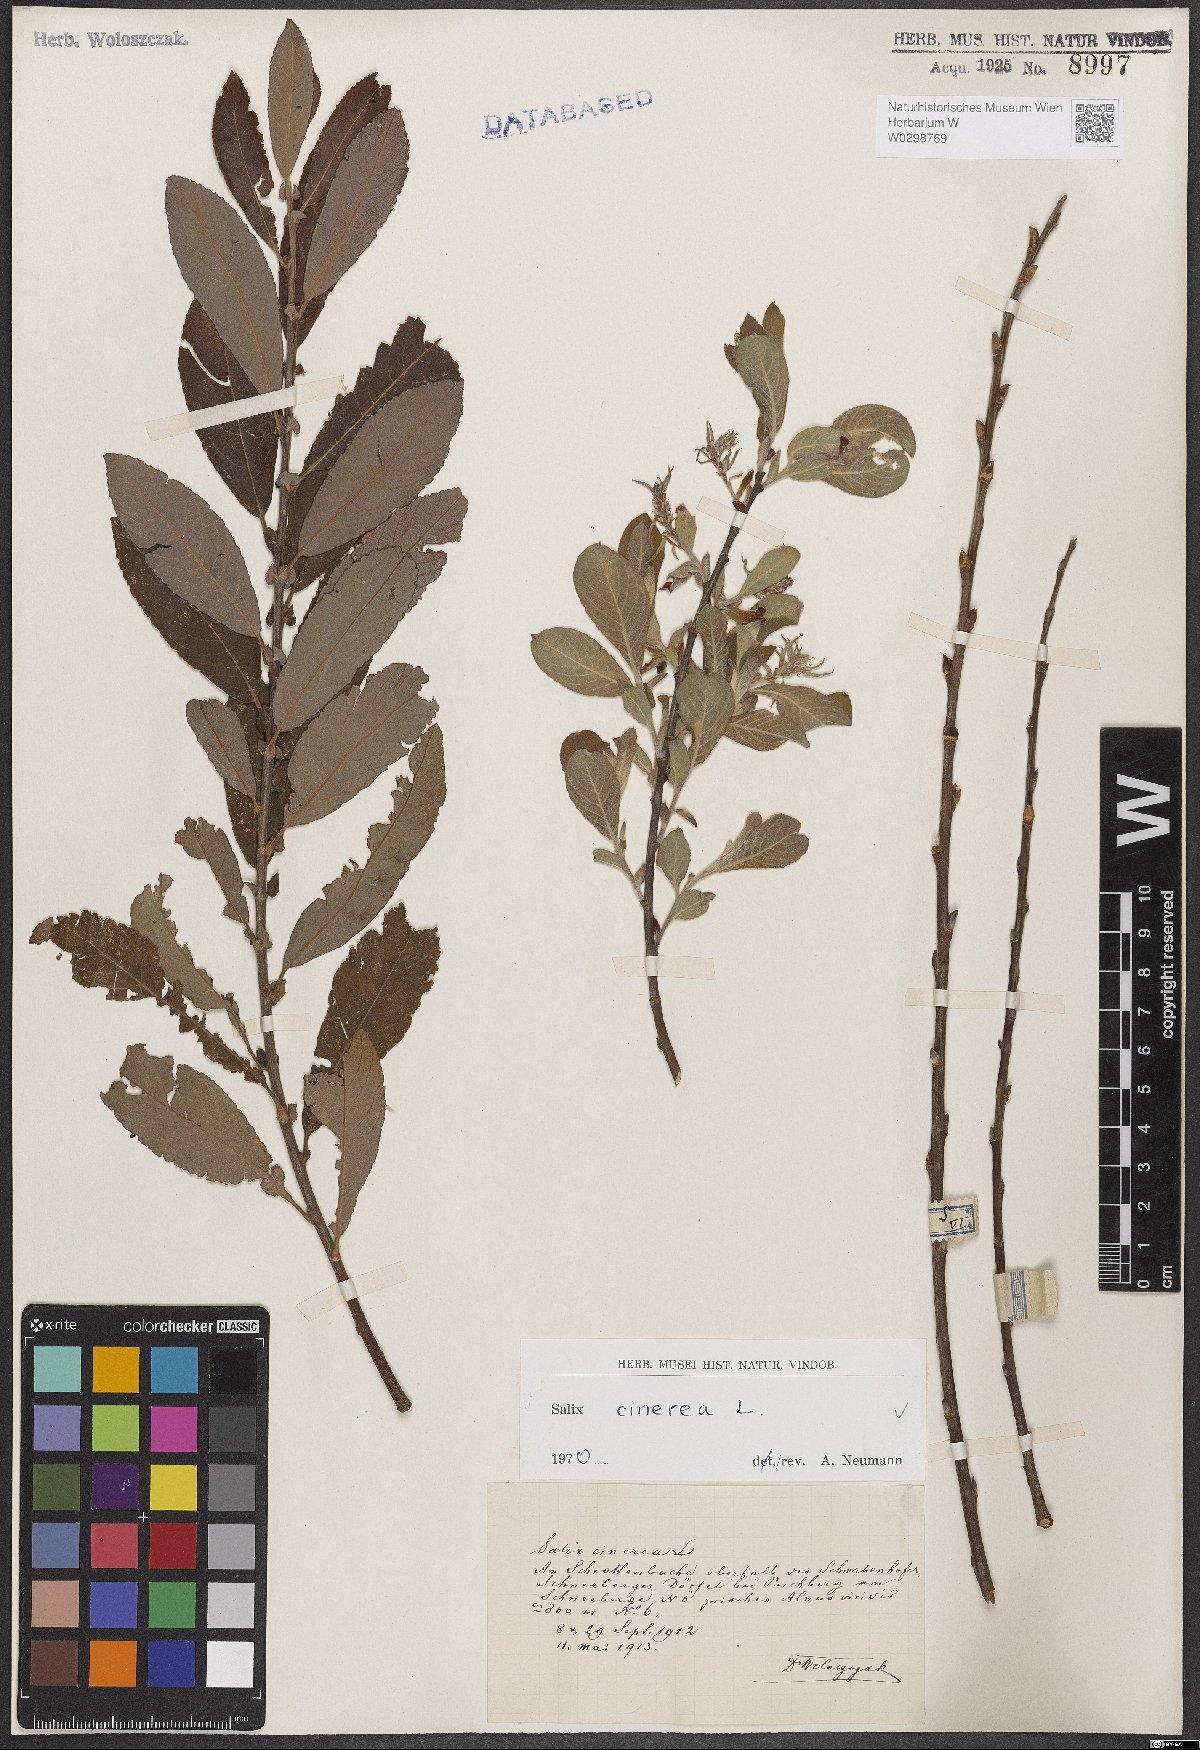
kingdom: Plantae
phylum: Tracheophyta
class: Magnoliopsida
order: Malpighiales
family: Salicaceae
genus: Salix
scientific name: Salix cinerea
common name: Common sallow
